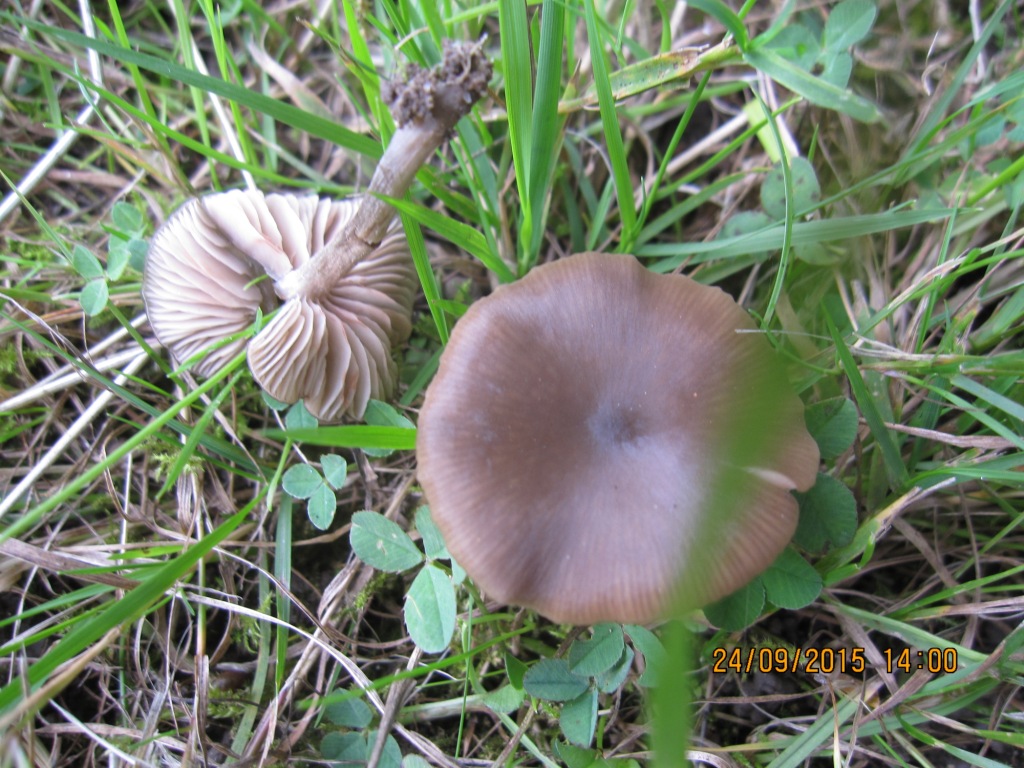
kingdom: Fungi
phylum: Basidiomycota
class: Agaricomycetes
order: Agaricales
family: Entolomataceae
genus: Entoloma
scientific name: Entoloma sericeum
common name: silkeglinsende rødblad
